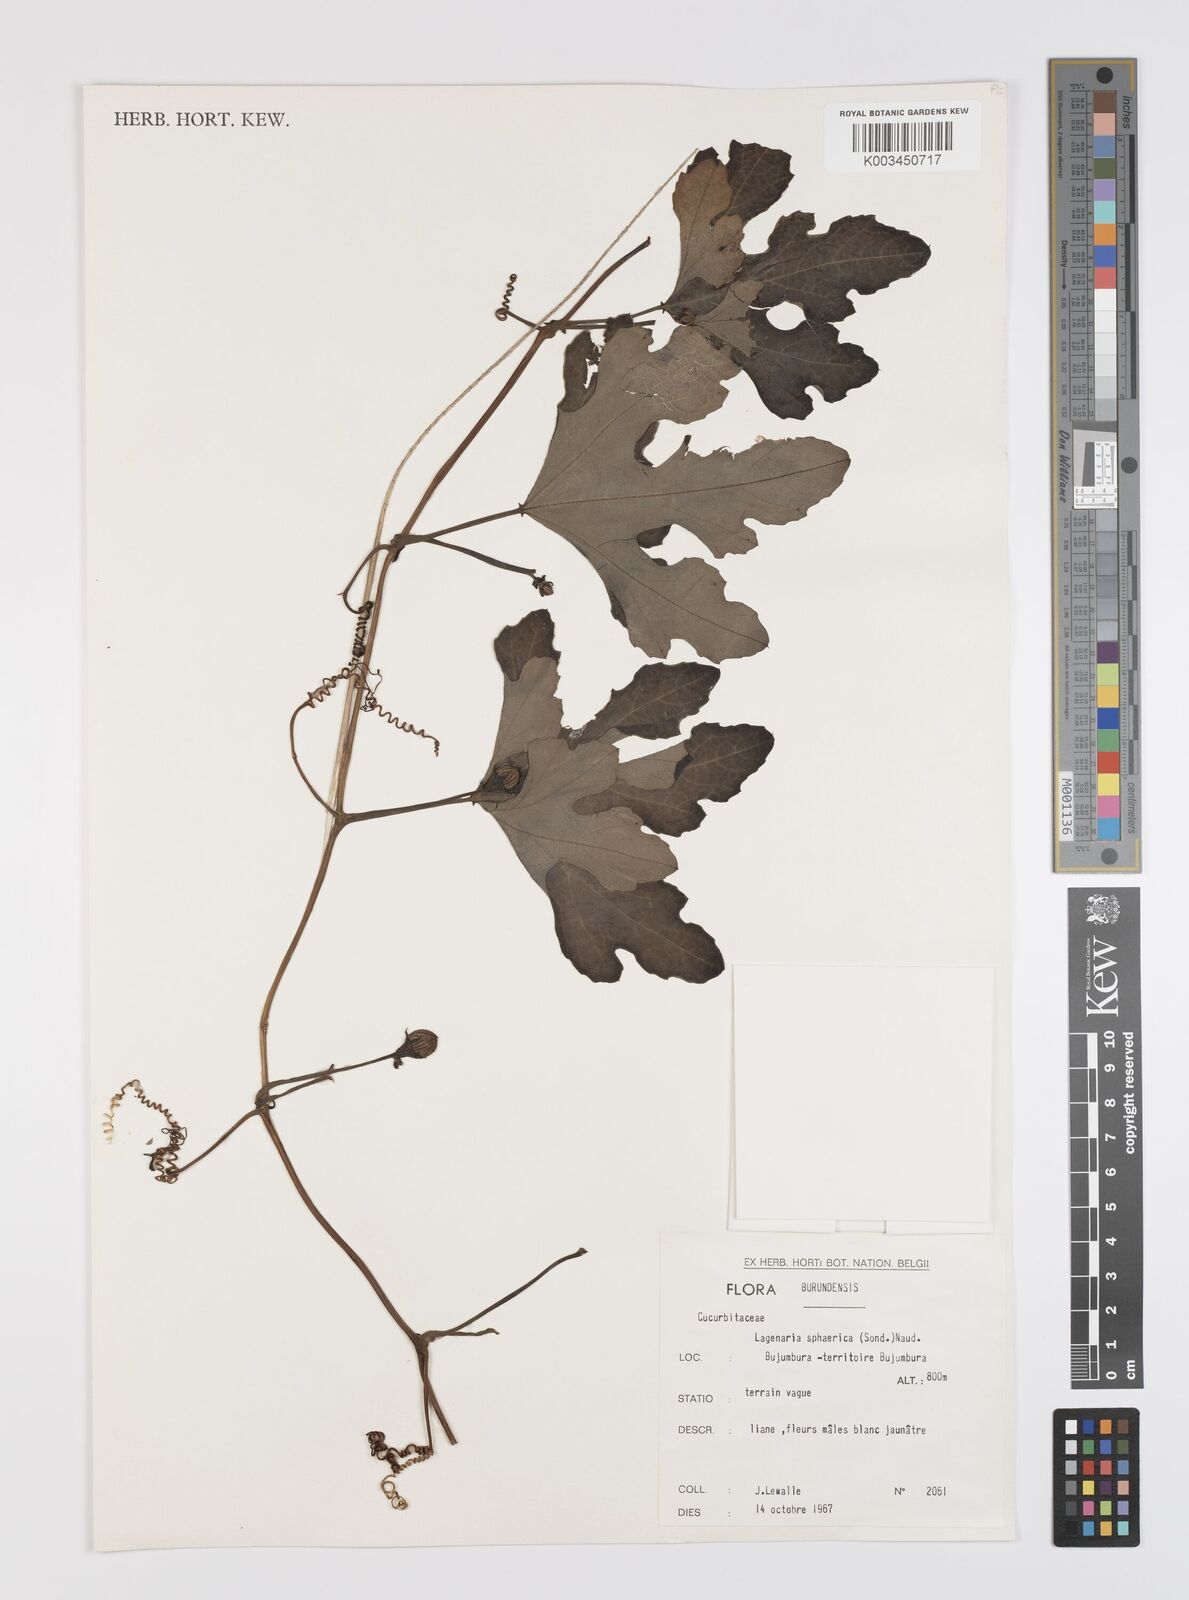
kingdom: Plantae
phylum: Tracheophyta
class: Magnoliopsida
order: Cucurbitales
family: Cucurbitaceae
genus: Lagenaria
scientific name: Lagenaria sphaerica
